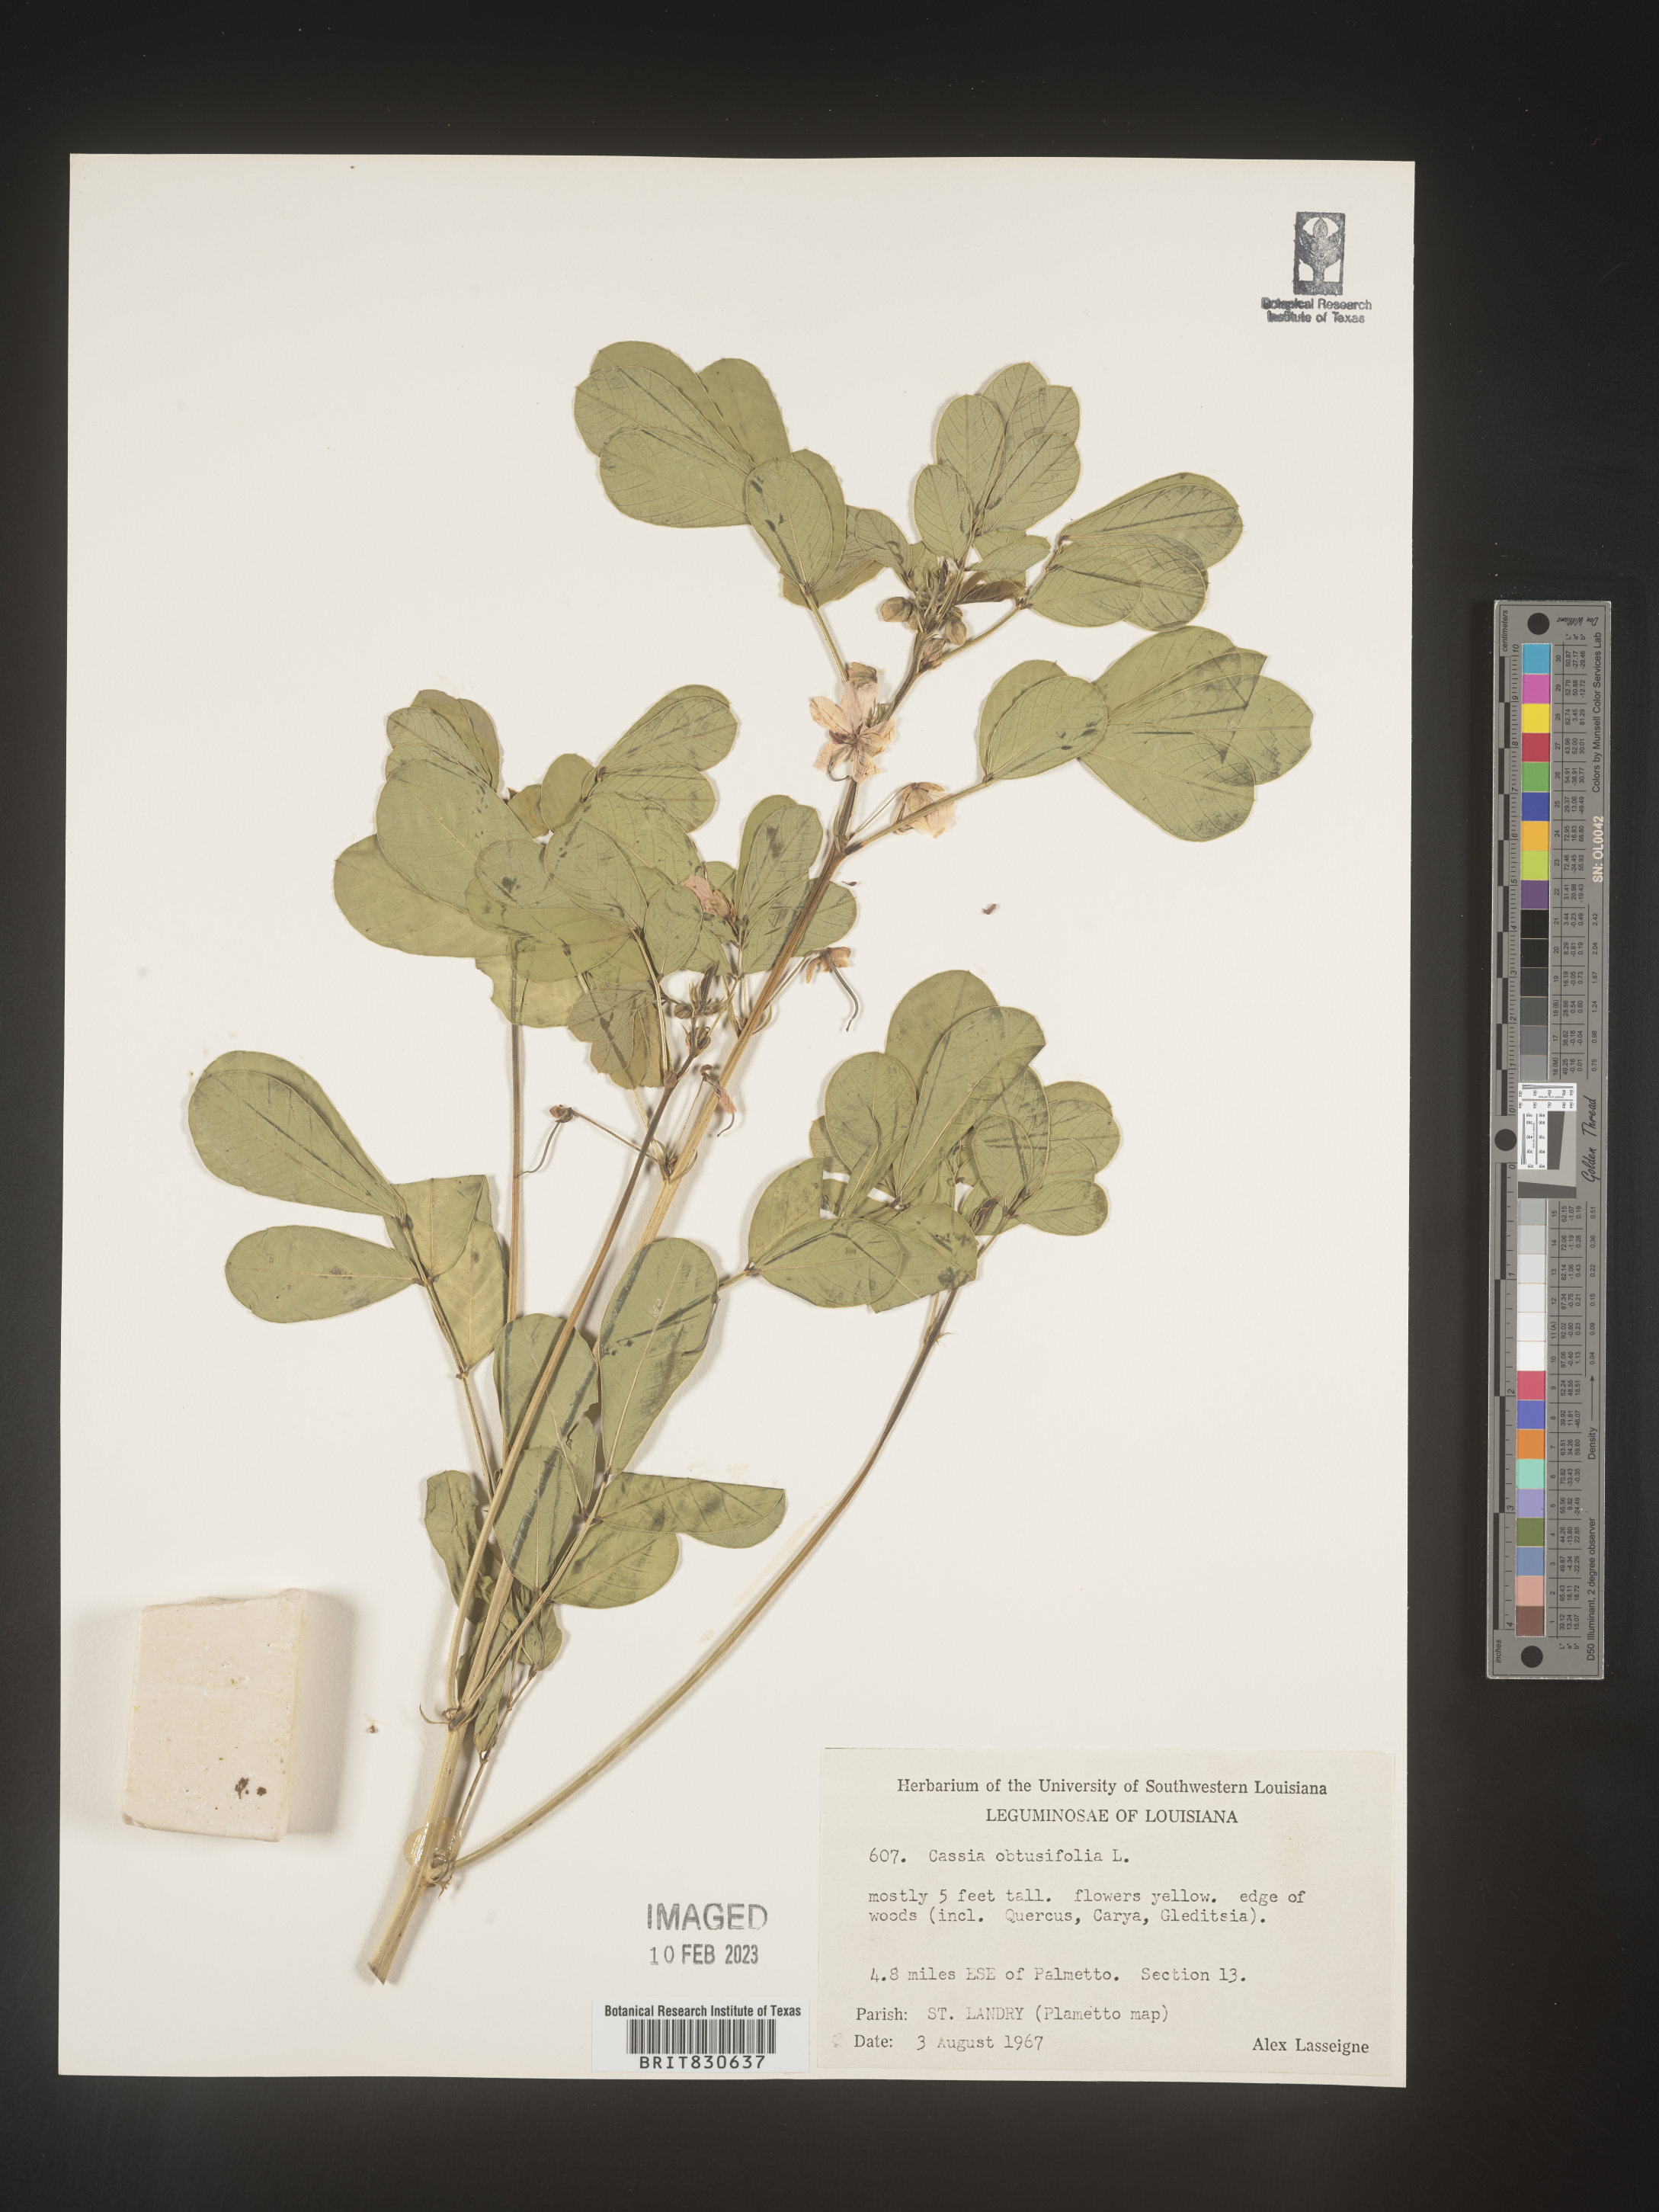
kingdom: Plantae
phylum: Tracheophyta
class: Magnoliopsida
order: Fabales
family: Fabaceae
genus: Senna
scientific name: Senna obtusifolia
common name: Java-bean
